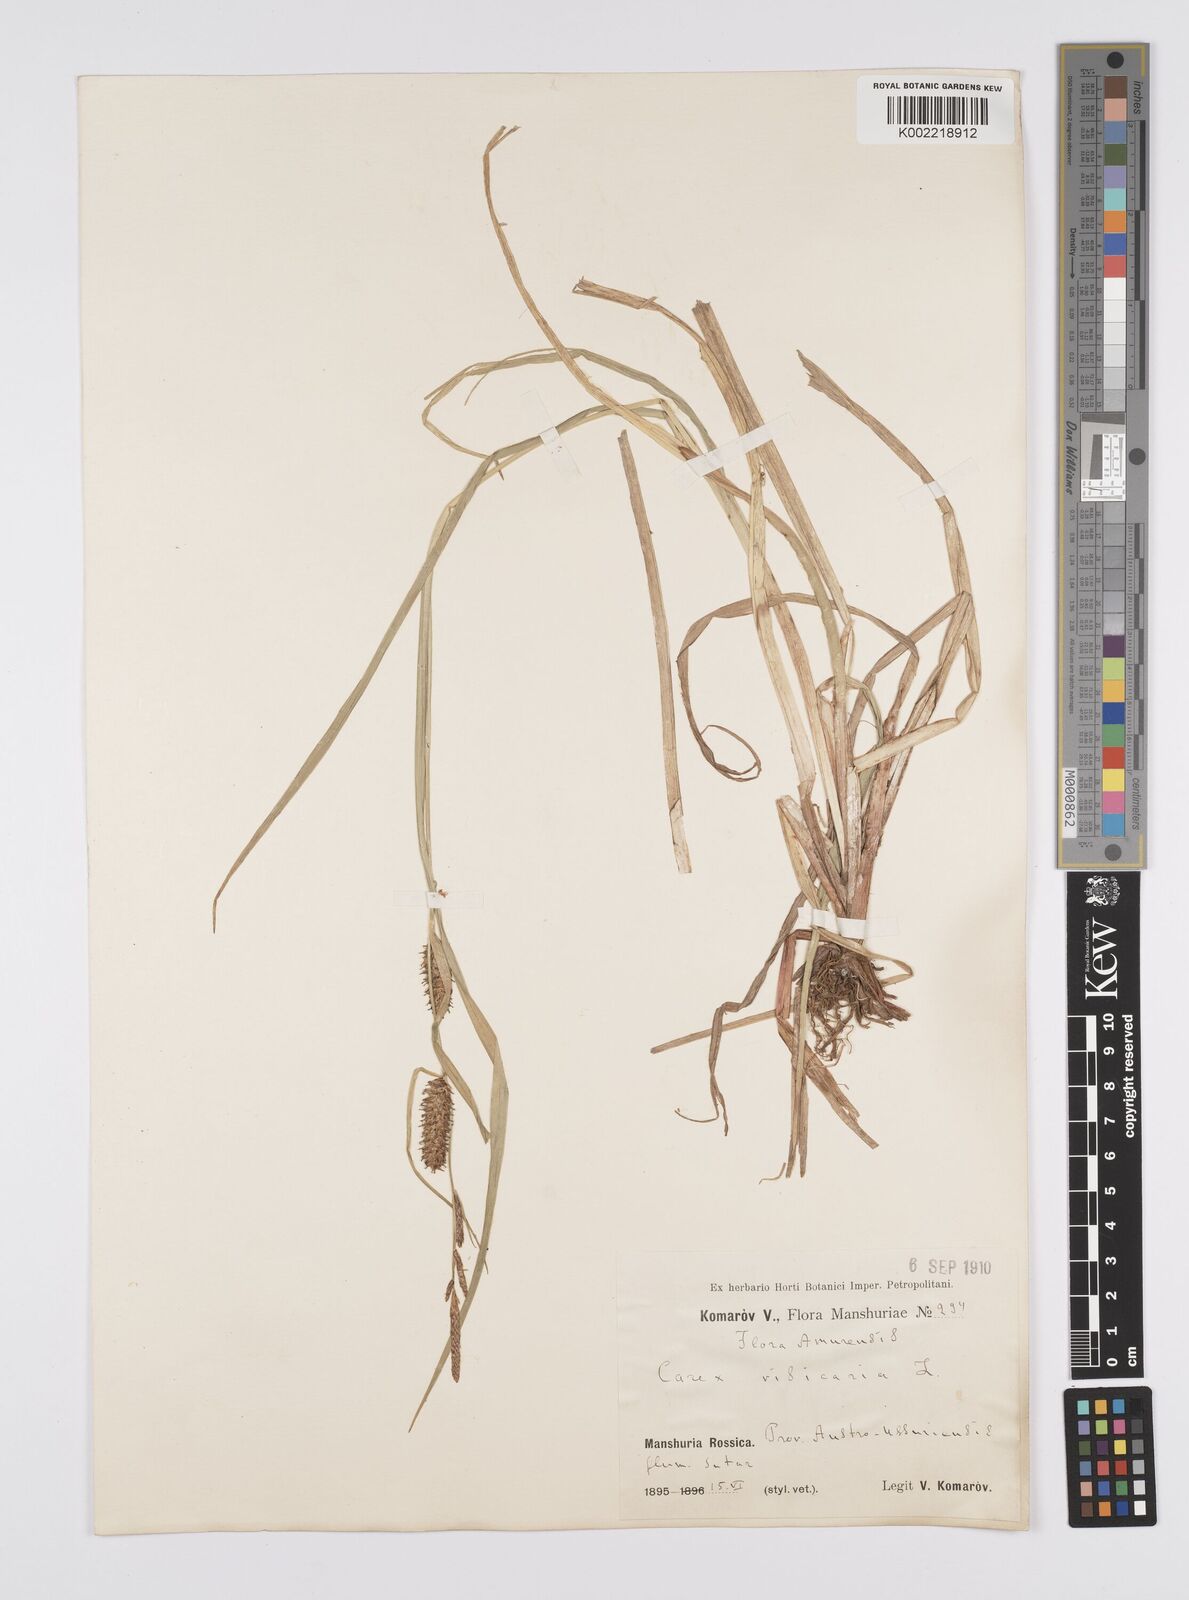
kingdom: Plantae
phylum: Tracheophyta
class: Liliopsida
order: Poales
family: Cyperaceae
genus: Carex
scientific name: Carex vesicaria
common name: Bladder-sedge
